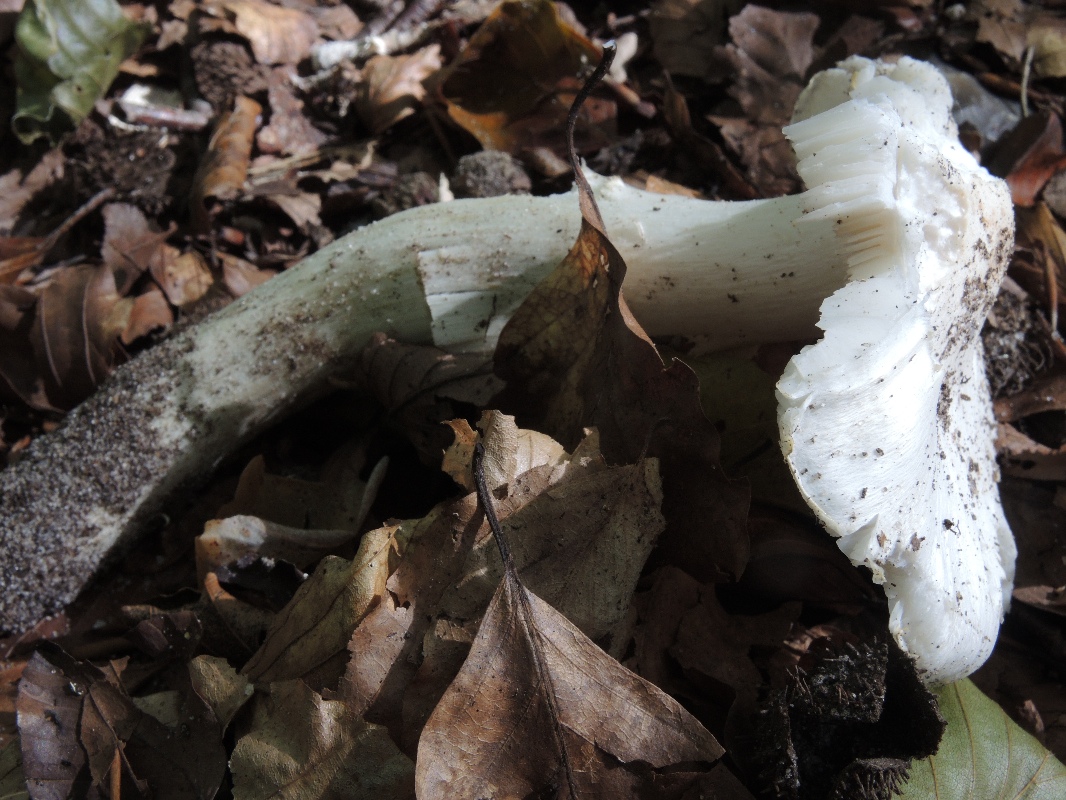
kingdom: Fungi
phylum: Basidiomycota
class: Agaricomycetes
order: Agaricales
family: Tricholomataceae
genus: Tricholoma
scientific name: Tricholoma columbetta
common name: silke-ridderhat
